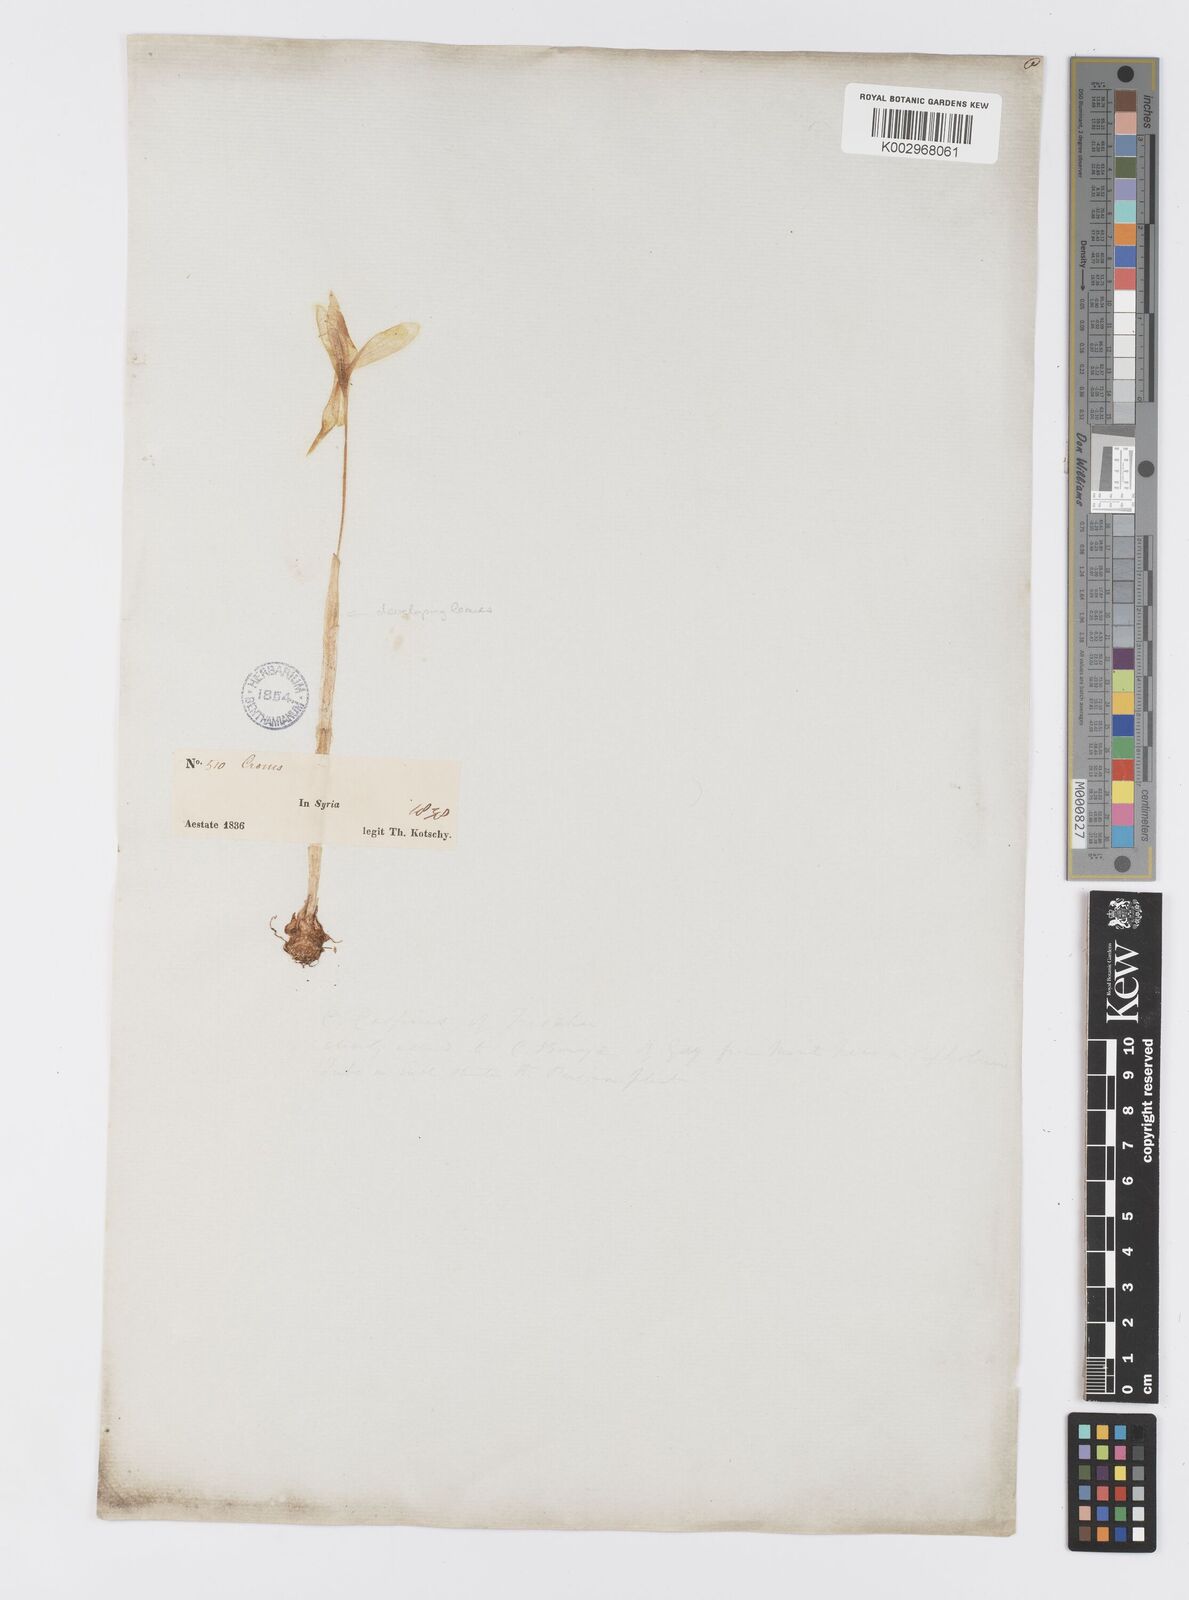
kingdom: Plantae
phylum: Tracheophyta
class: Liliopsida
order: Asparagales
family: Iridaceae
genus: Crocus
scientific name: Crocus ochroleucus
